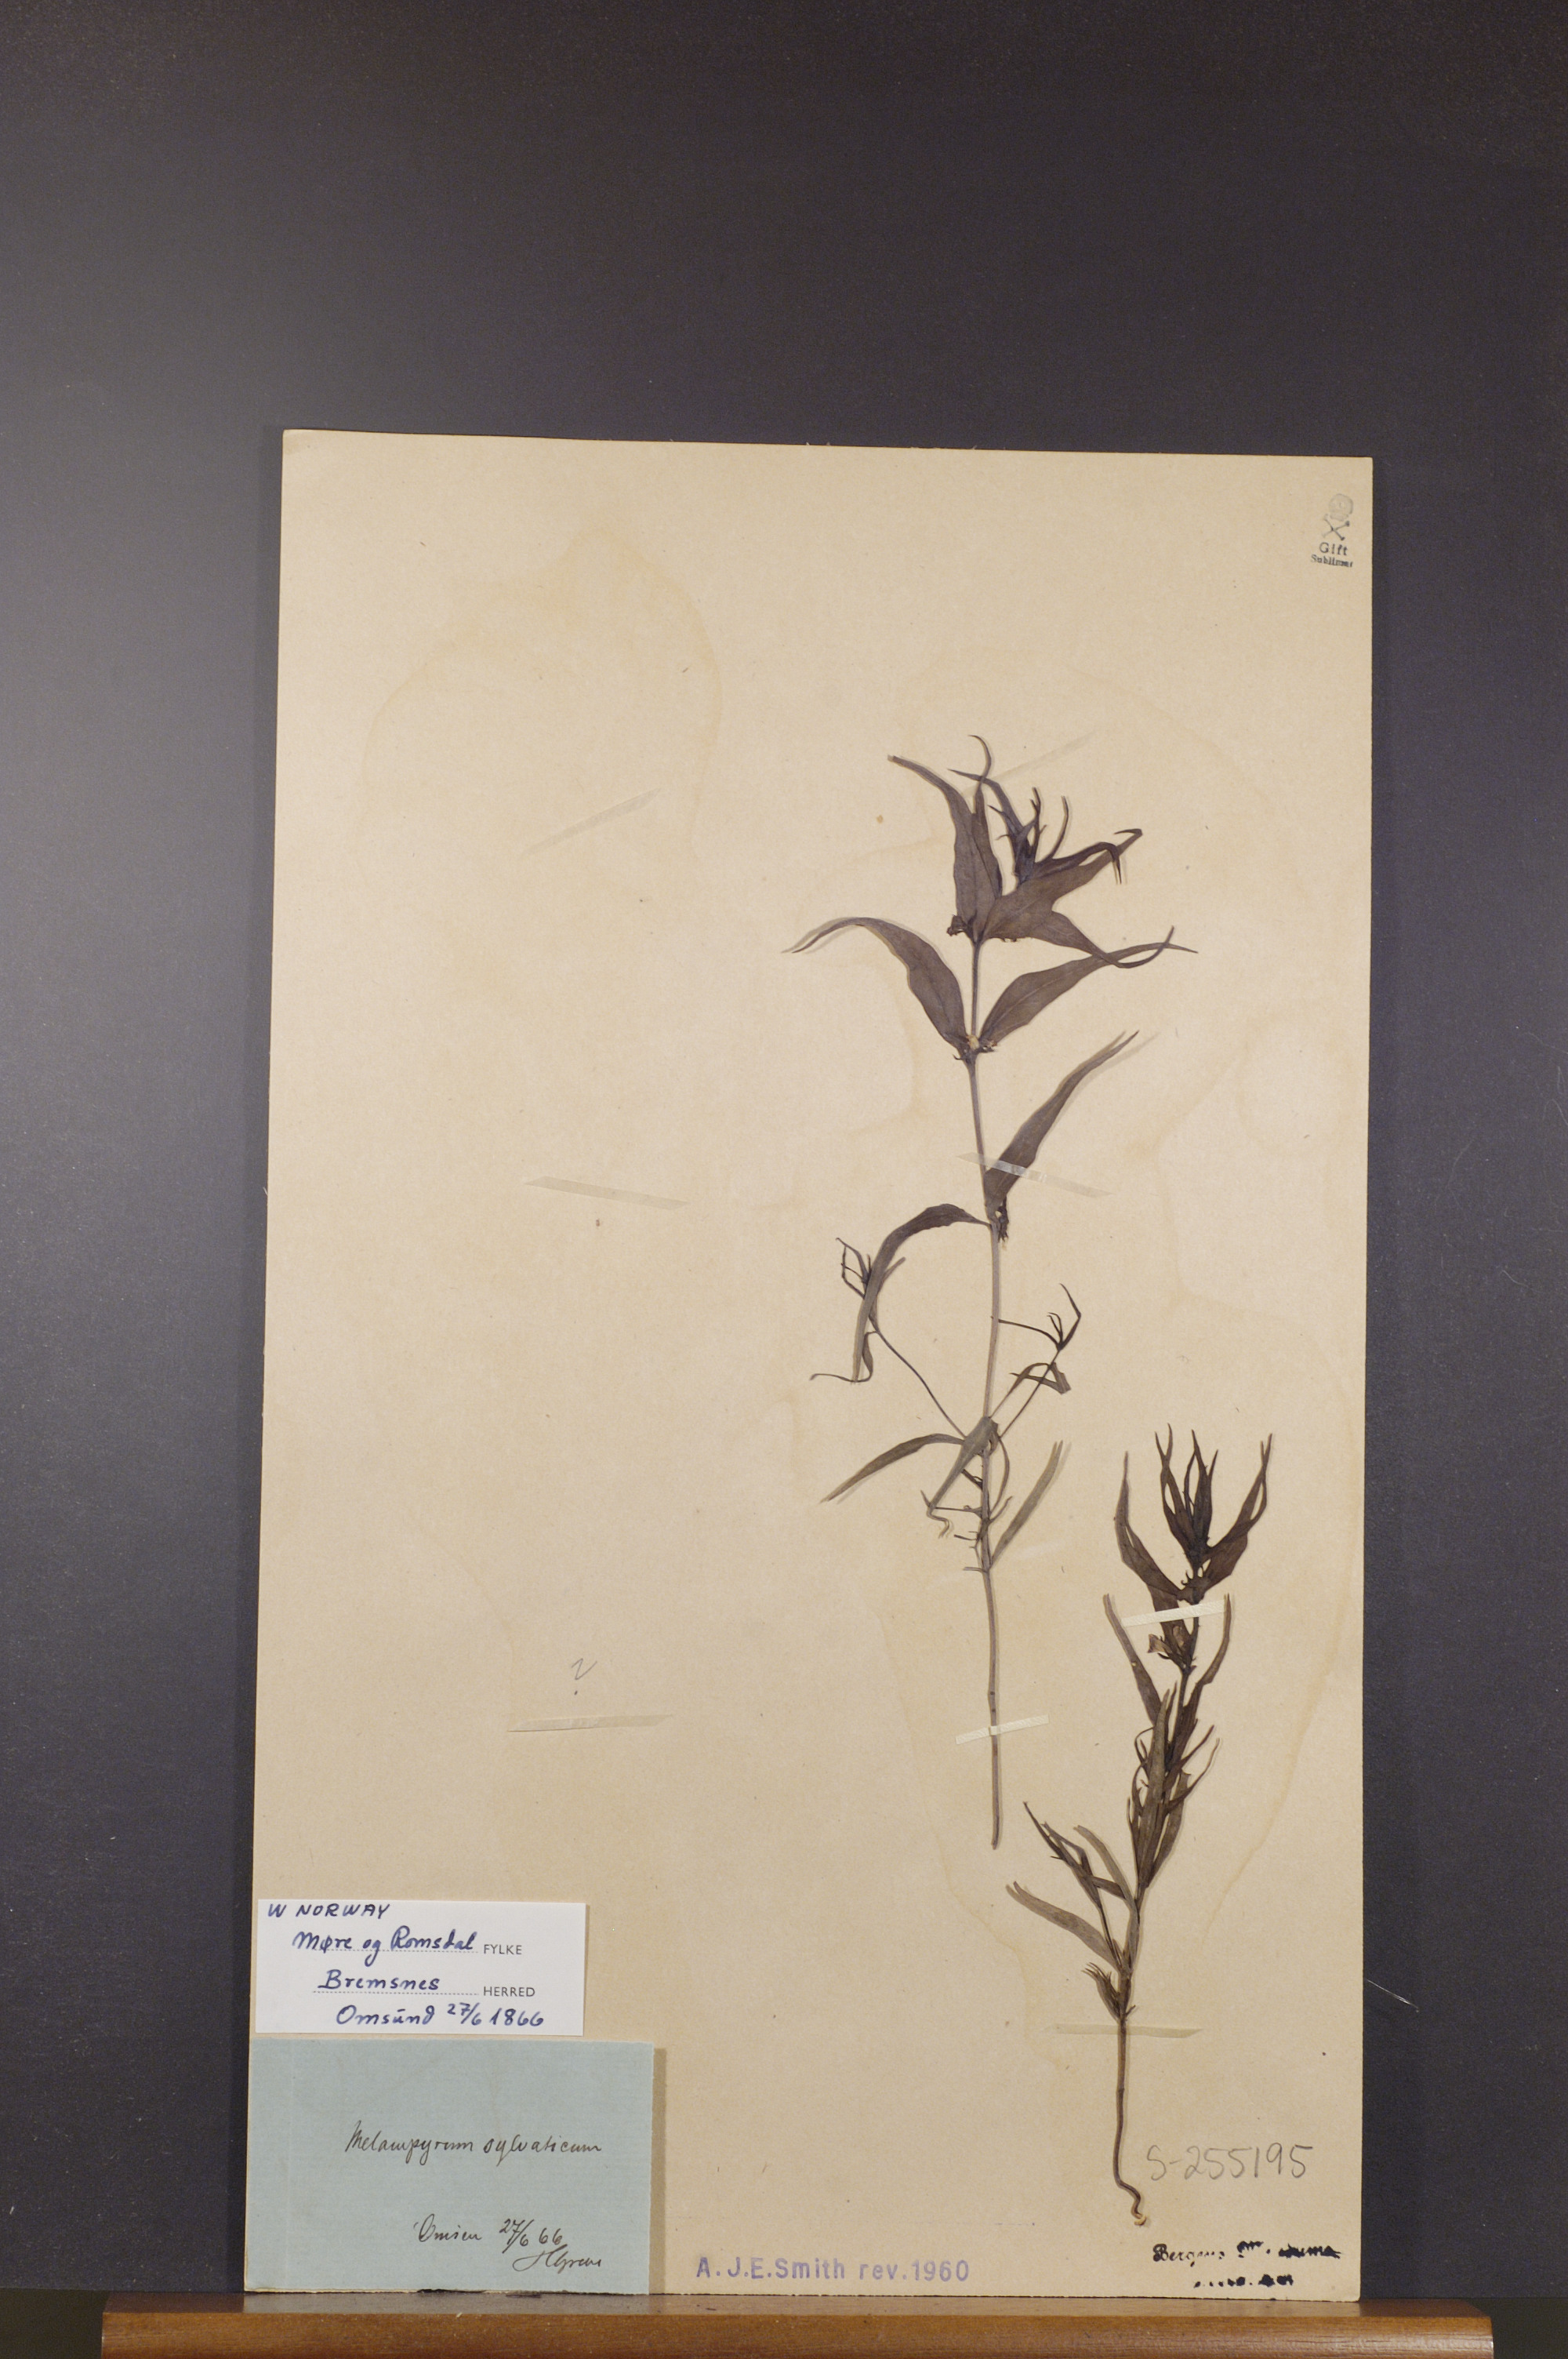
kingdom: Plantae
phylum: Tracheophyta
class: Magnoliopsida
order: Lamiales
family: Orobanchaceae
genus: Melampyrum
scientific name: Melampyrum sylvaticum
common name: Small cow-wheat
